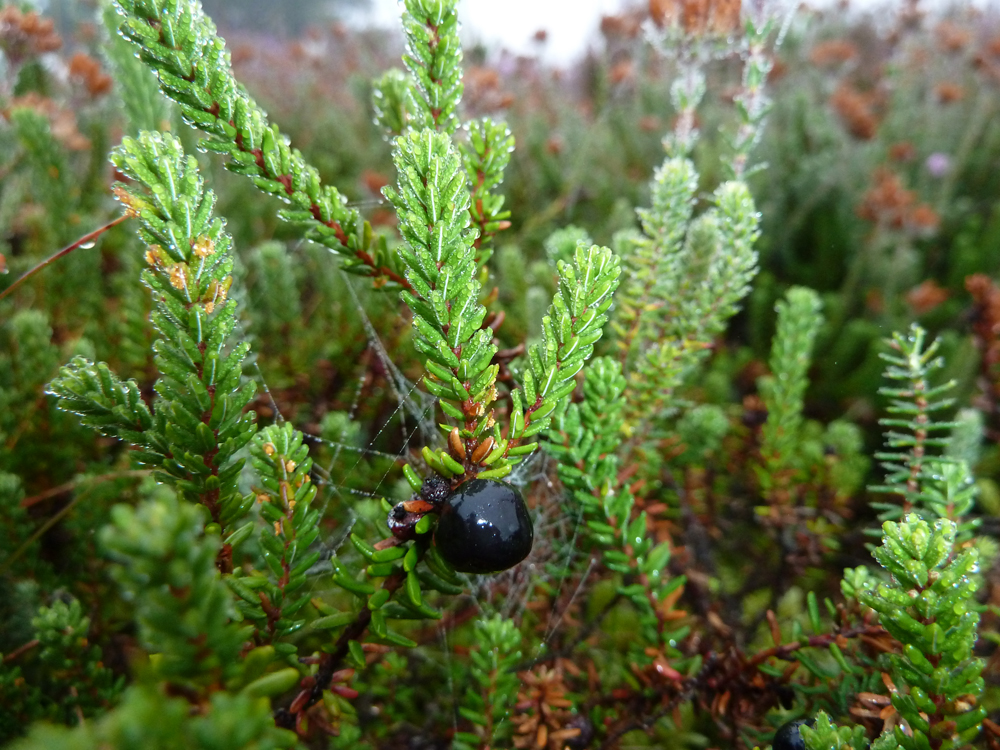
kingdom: Plantae
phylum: Tracheophyta
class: Magnoliopsida
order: Ericales
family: Ericaceae
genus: Empetrum
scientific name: Empetrum nigrum
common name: Black crowberry
